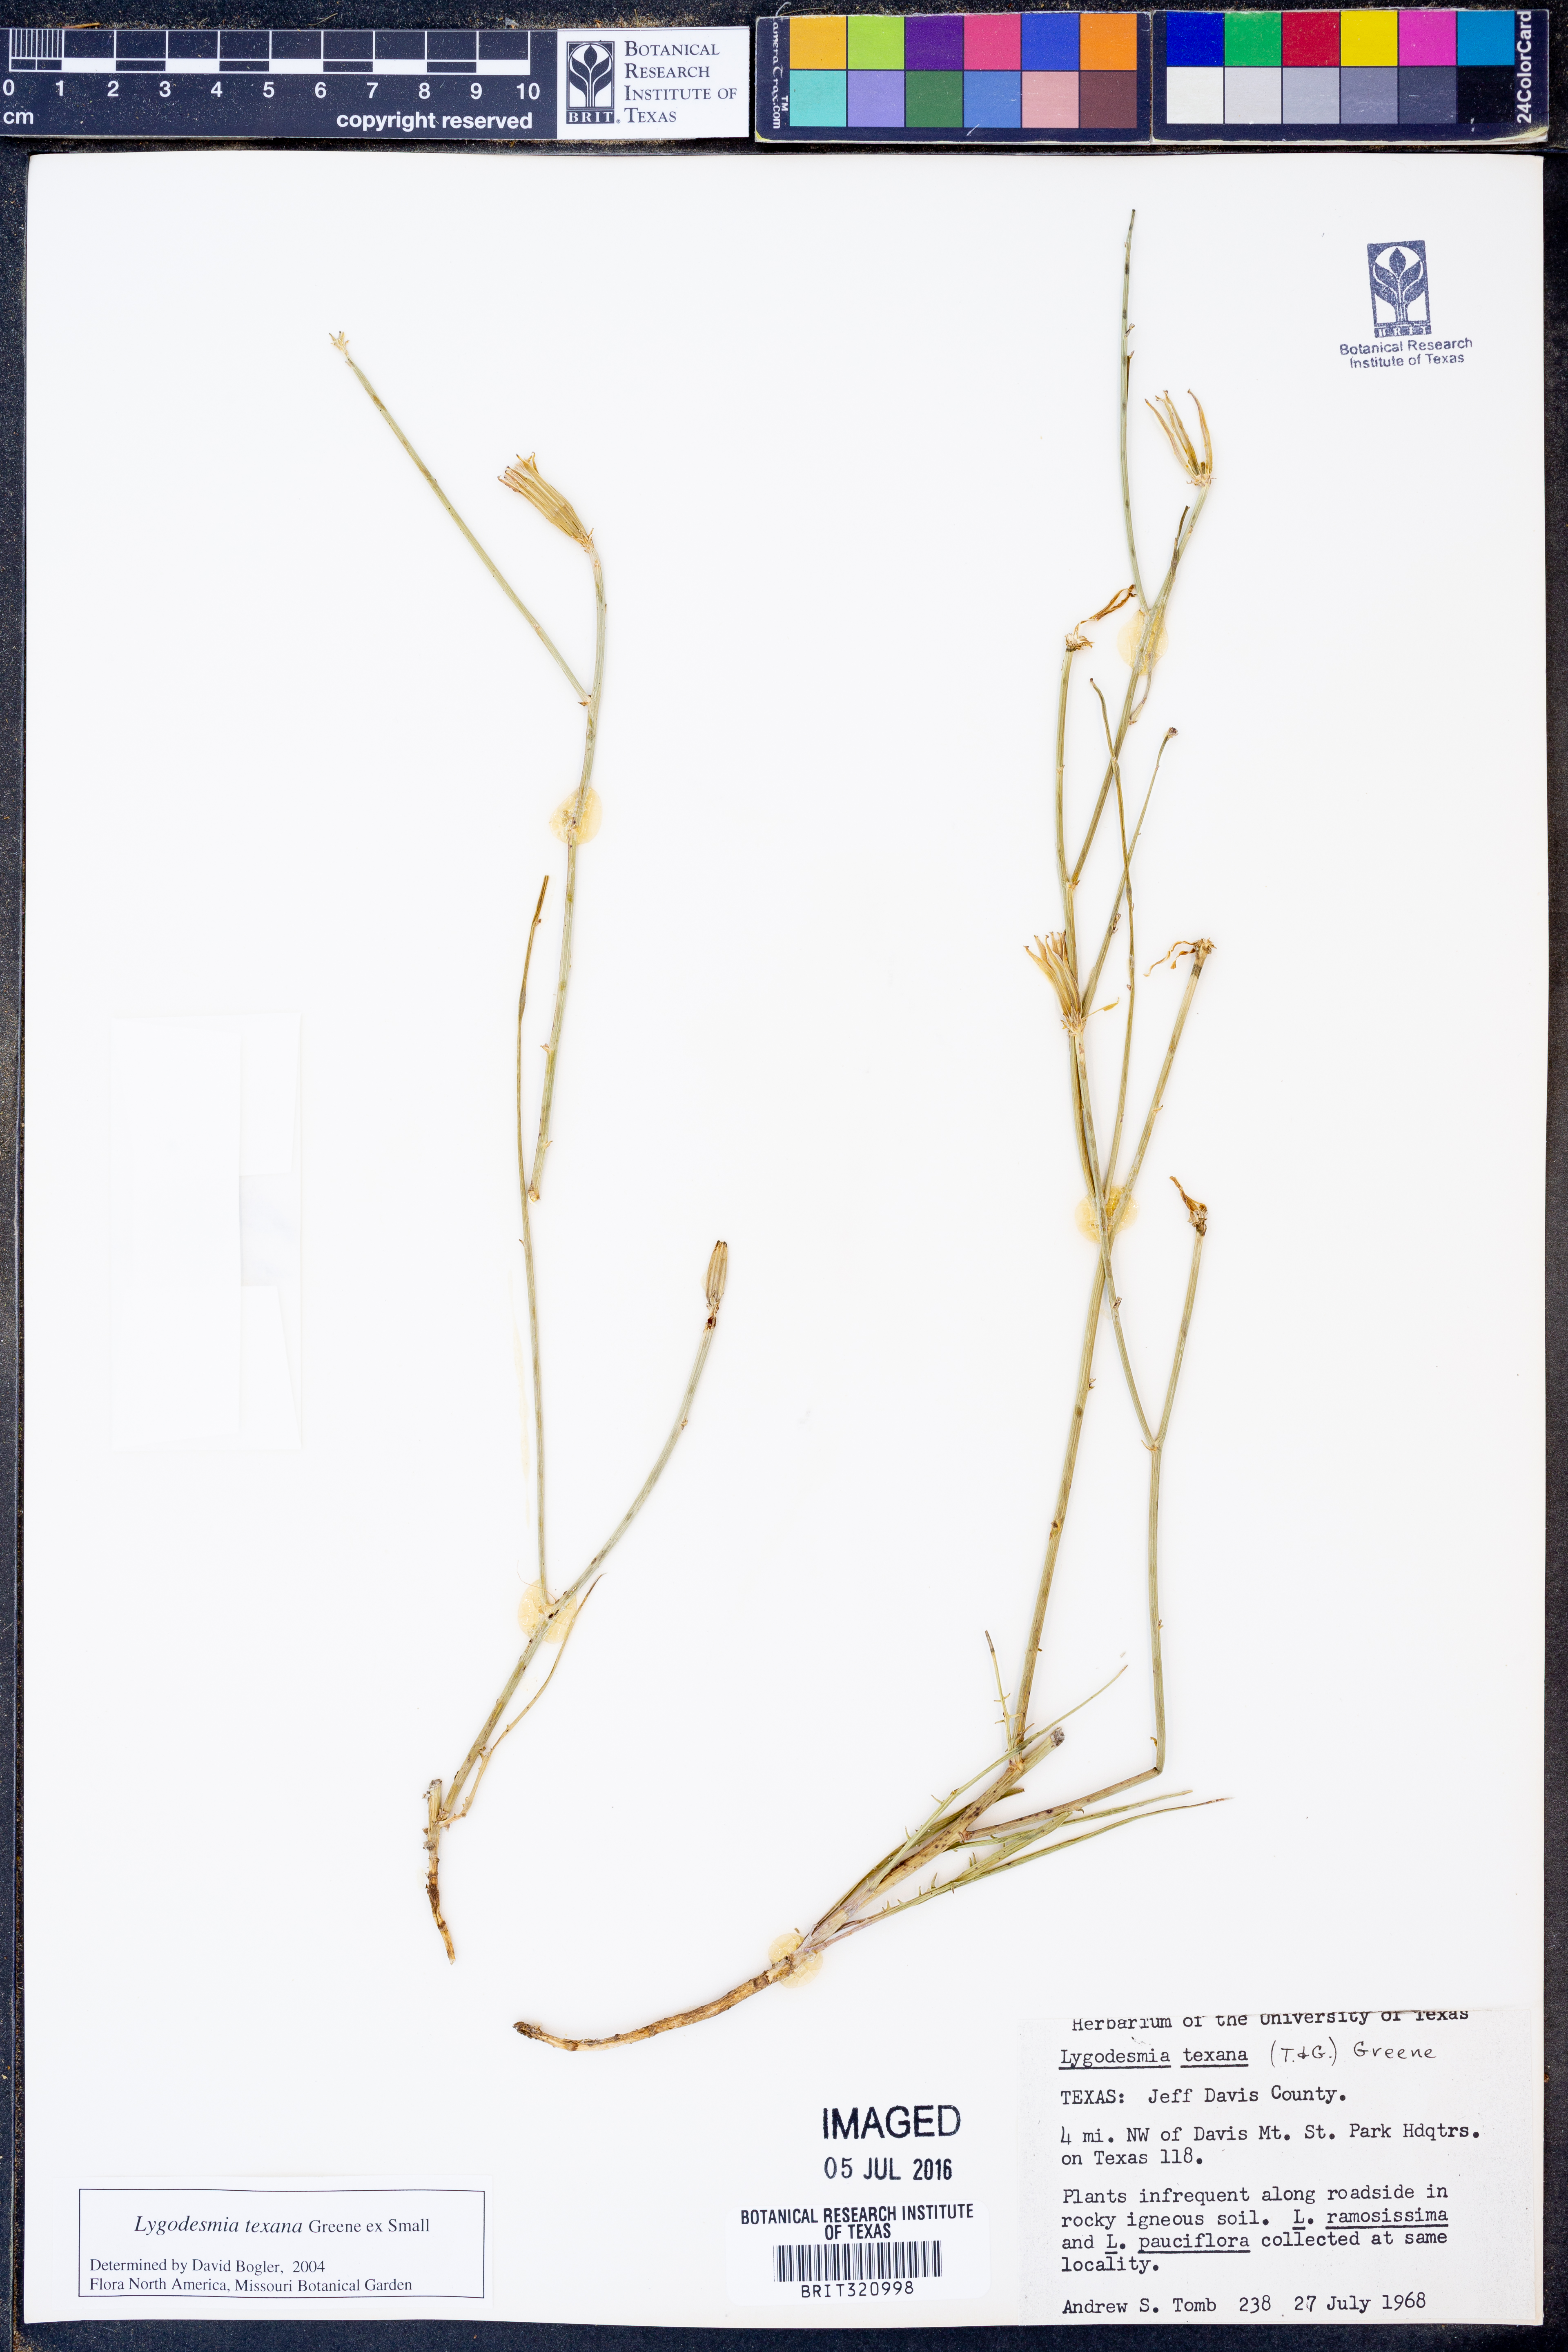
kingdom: Plantae
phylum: Tracheophyta
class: Magnoliopsida
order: Asterales
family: Asteraceae
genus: Lygodesmia
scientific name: Lygodesmia texana
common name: Texas skeleton-plant
